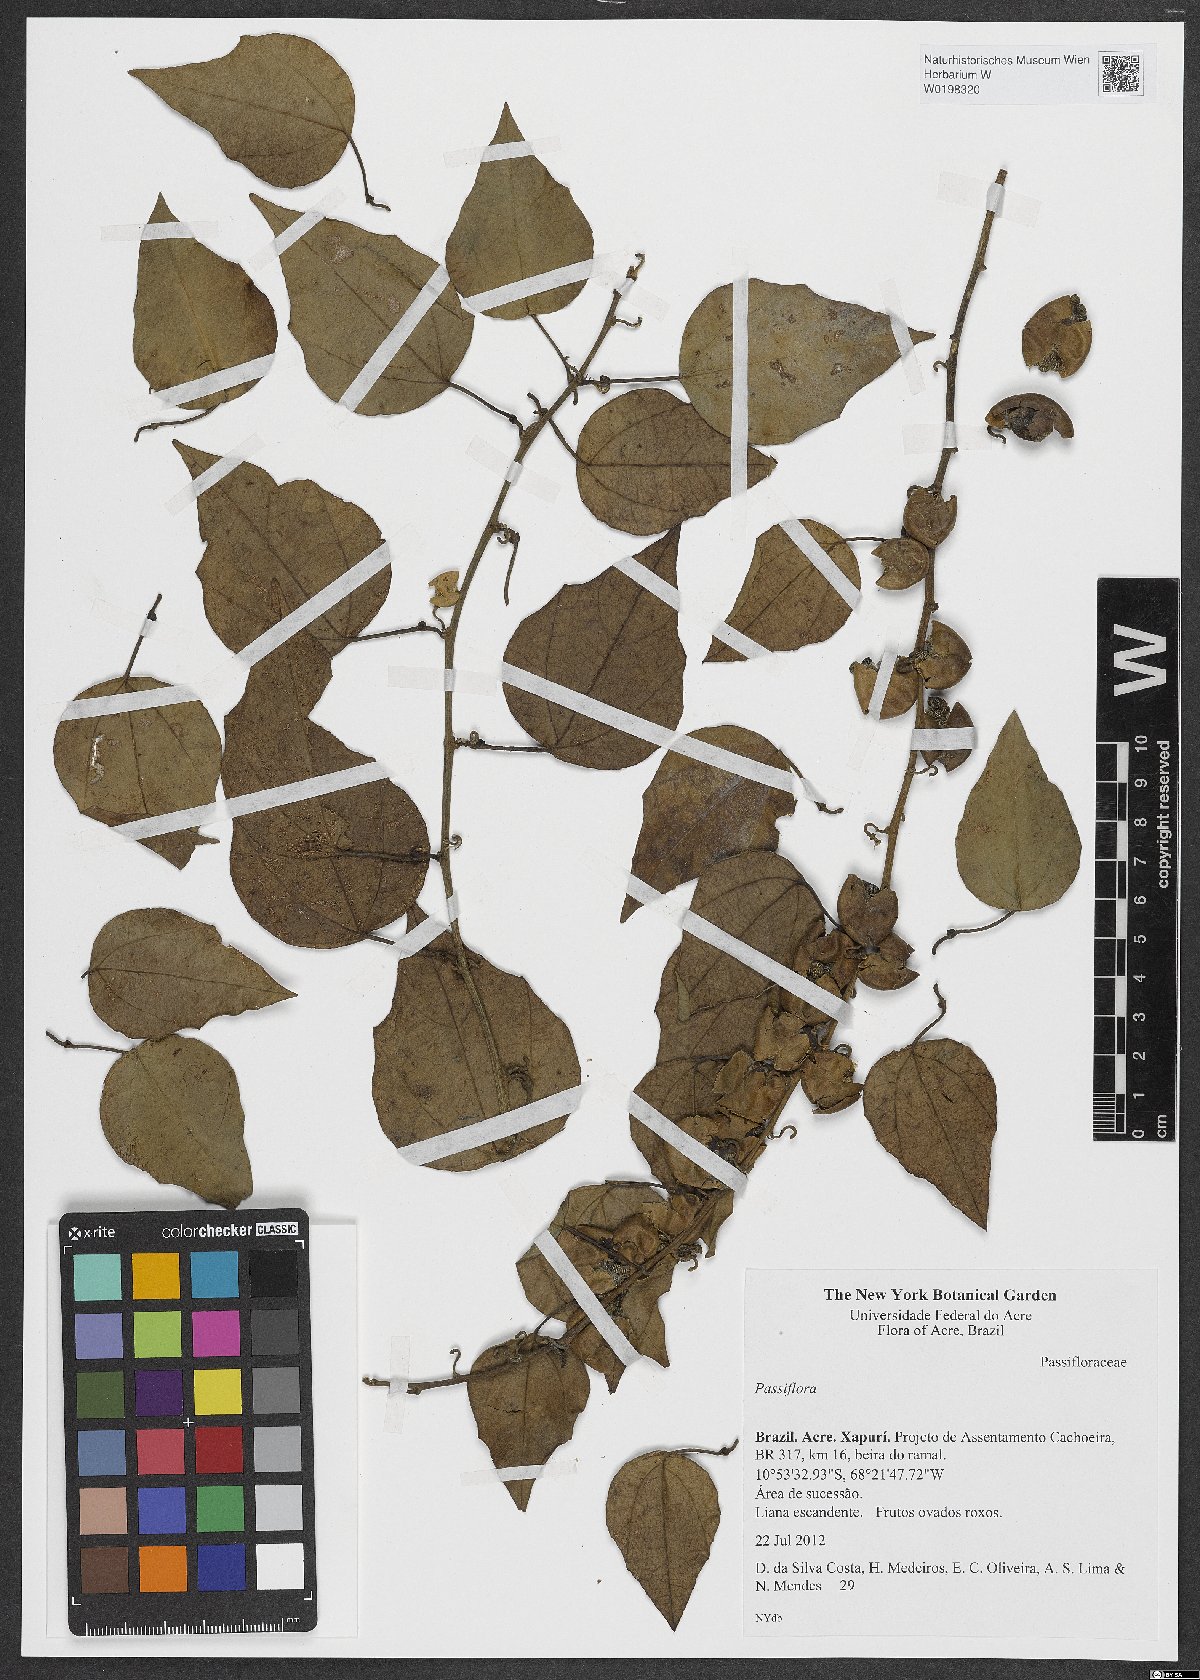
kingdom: Plantae
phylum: Tracheophyta
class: Magnoliopsida
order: Malpighiales
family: Passifloraceae
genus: Passiflora
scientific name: Passiflora
